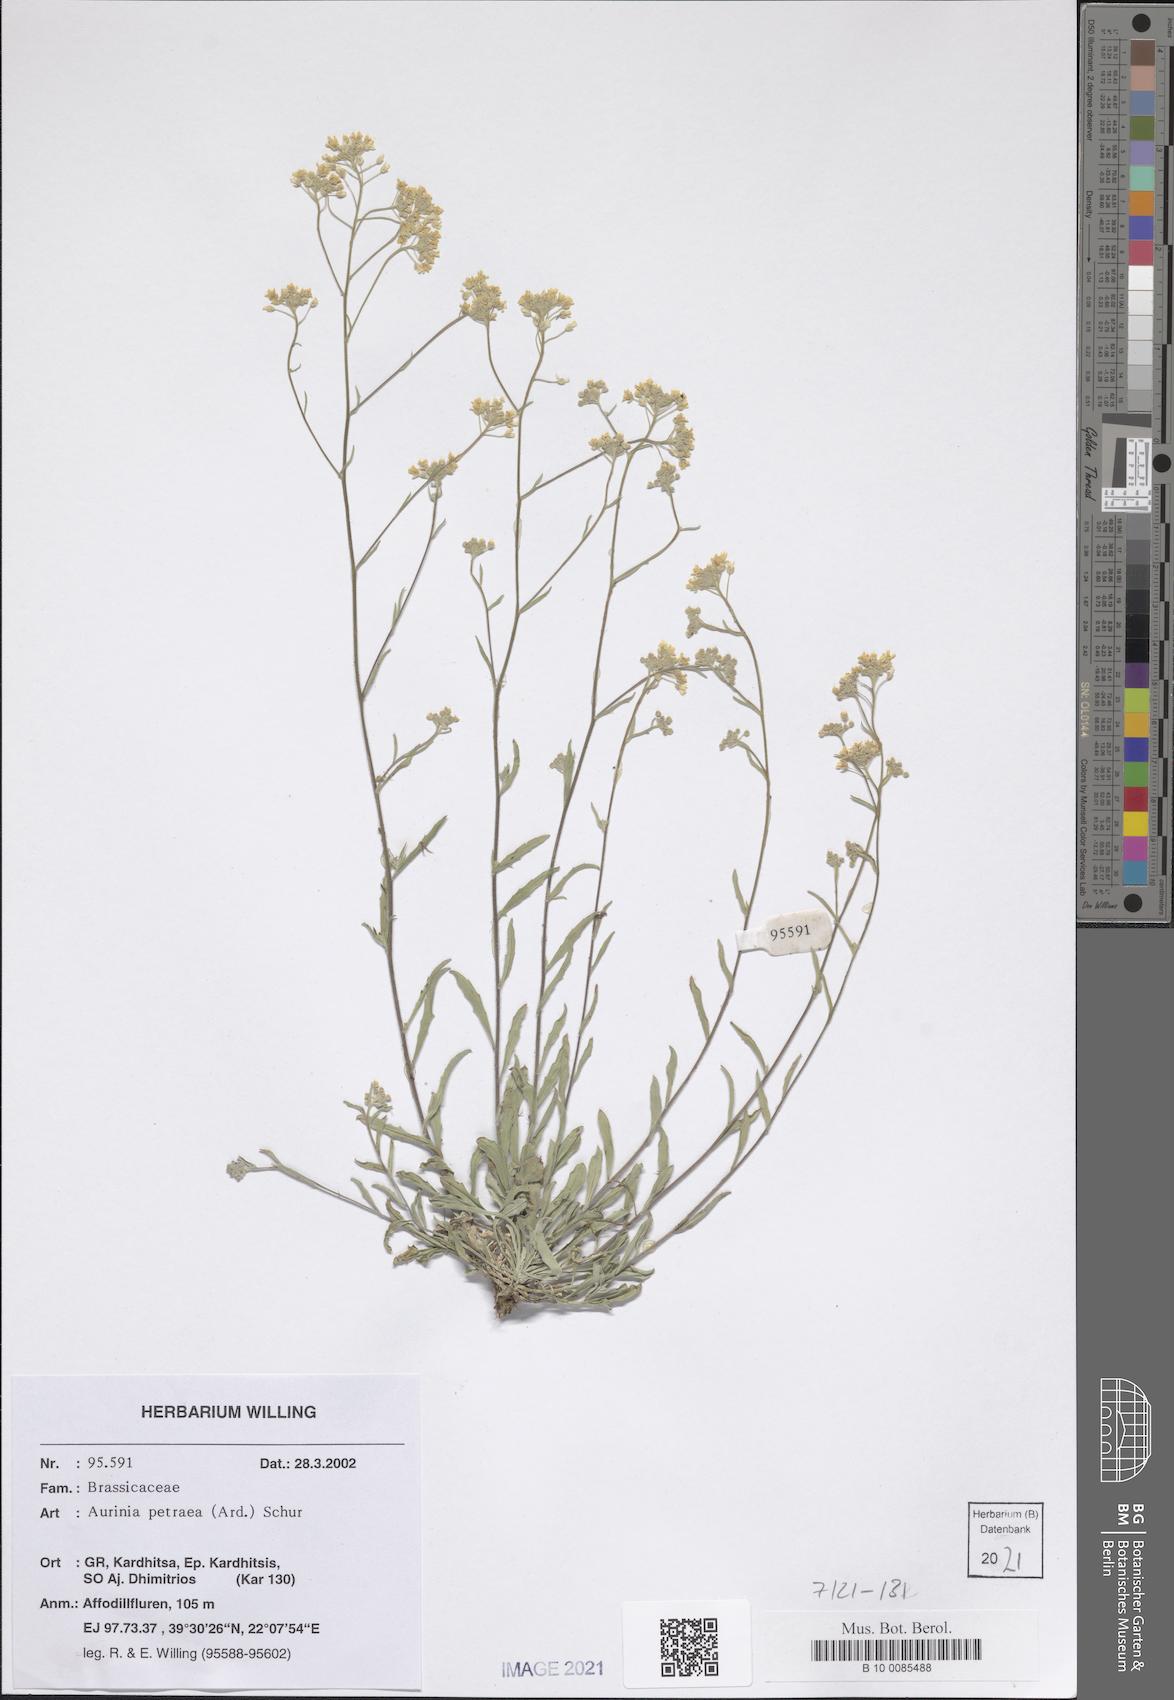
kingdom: Plantae
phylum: Tracheophyta
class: Magnoliopsida
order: Brassicales
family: Brassicaceae
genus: Aurinia
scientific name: Aurinia petraea
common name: Goldentuft
